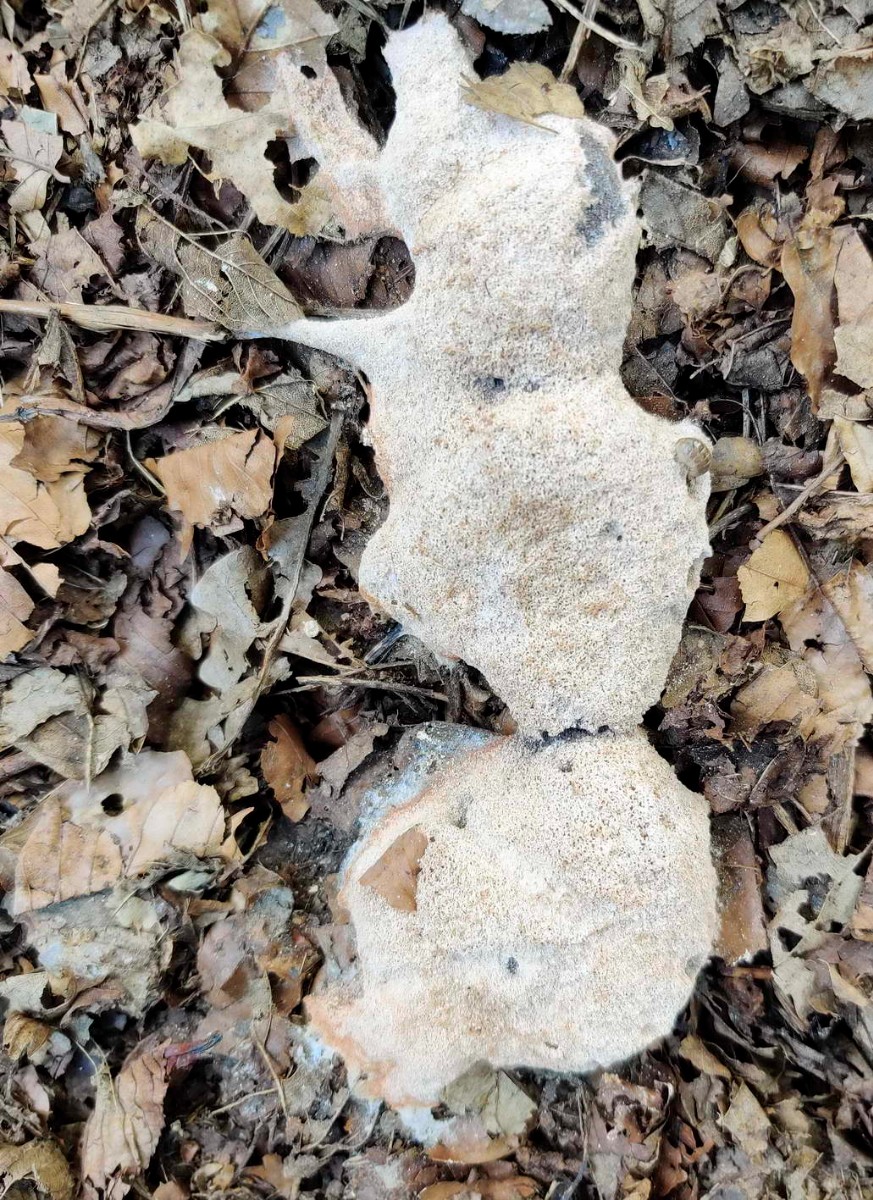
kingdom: Protozoa
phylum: Mycetozoa
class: Myxomycetes
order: Physarales
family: Physaraceae
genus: Fuligo
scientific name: Fuligo septica
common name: Dog vomit slime mold
